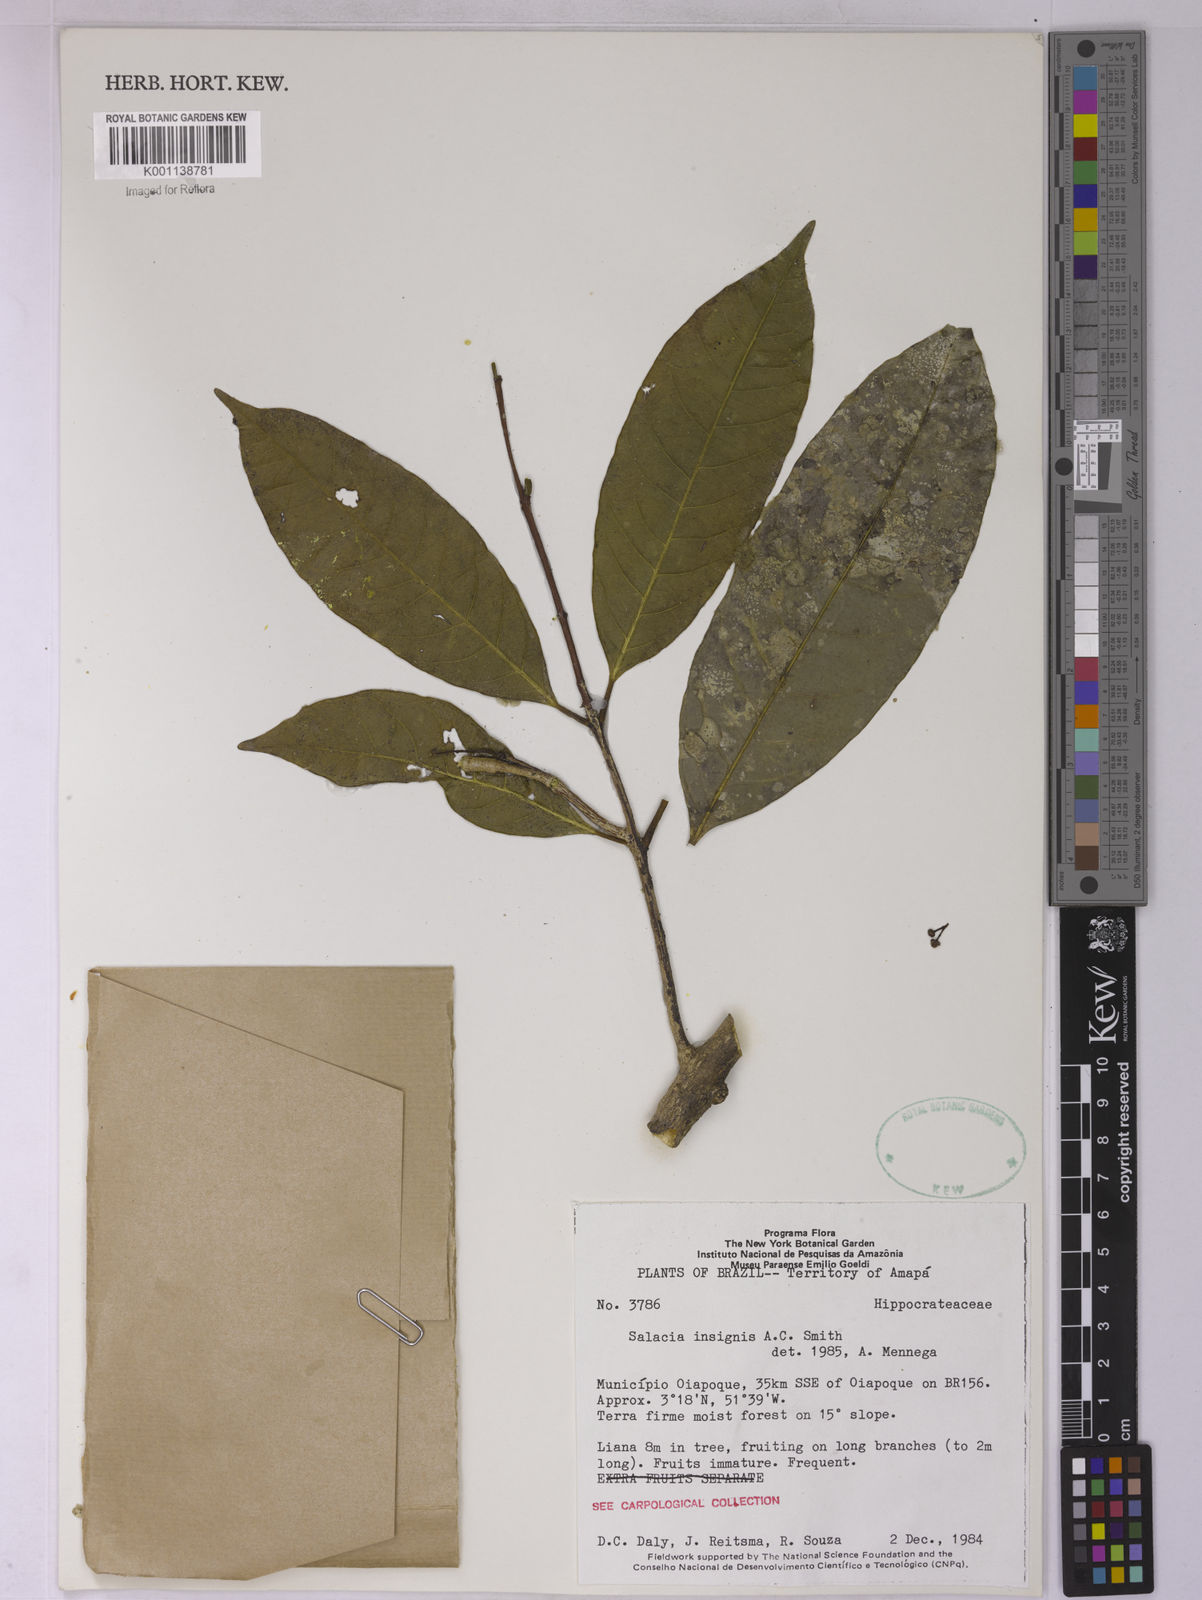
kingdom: Plantae
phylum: Tracheophyta
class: Magnoliopsida
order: Celastrales
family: Celastraceae
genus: Salacia
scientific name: Salacia insignis
